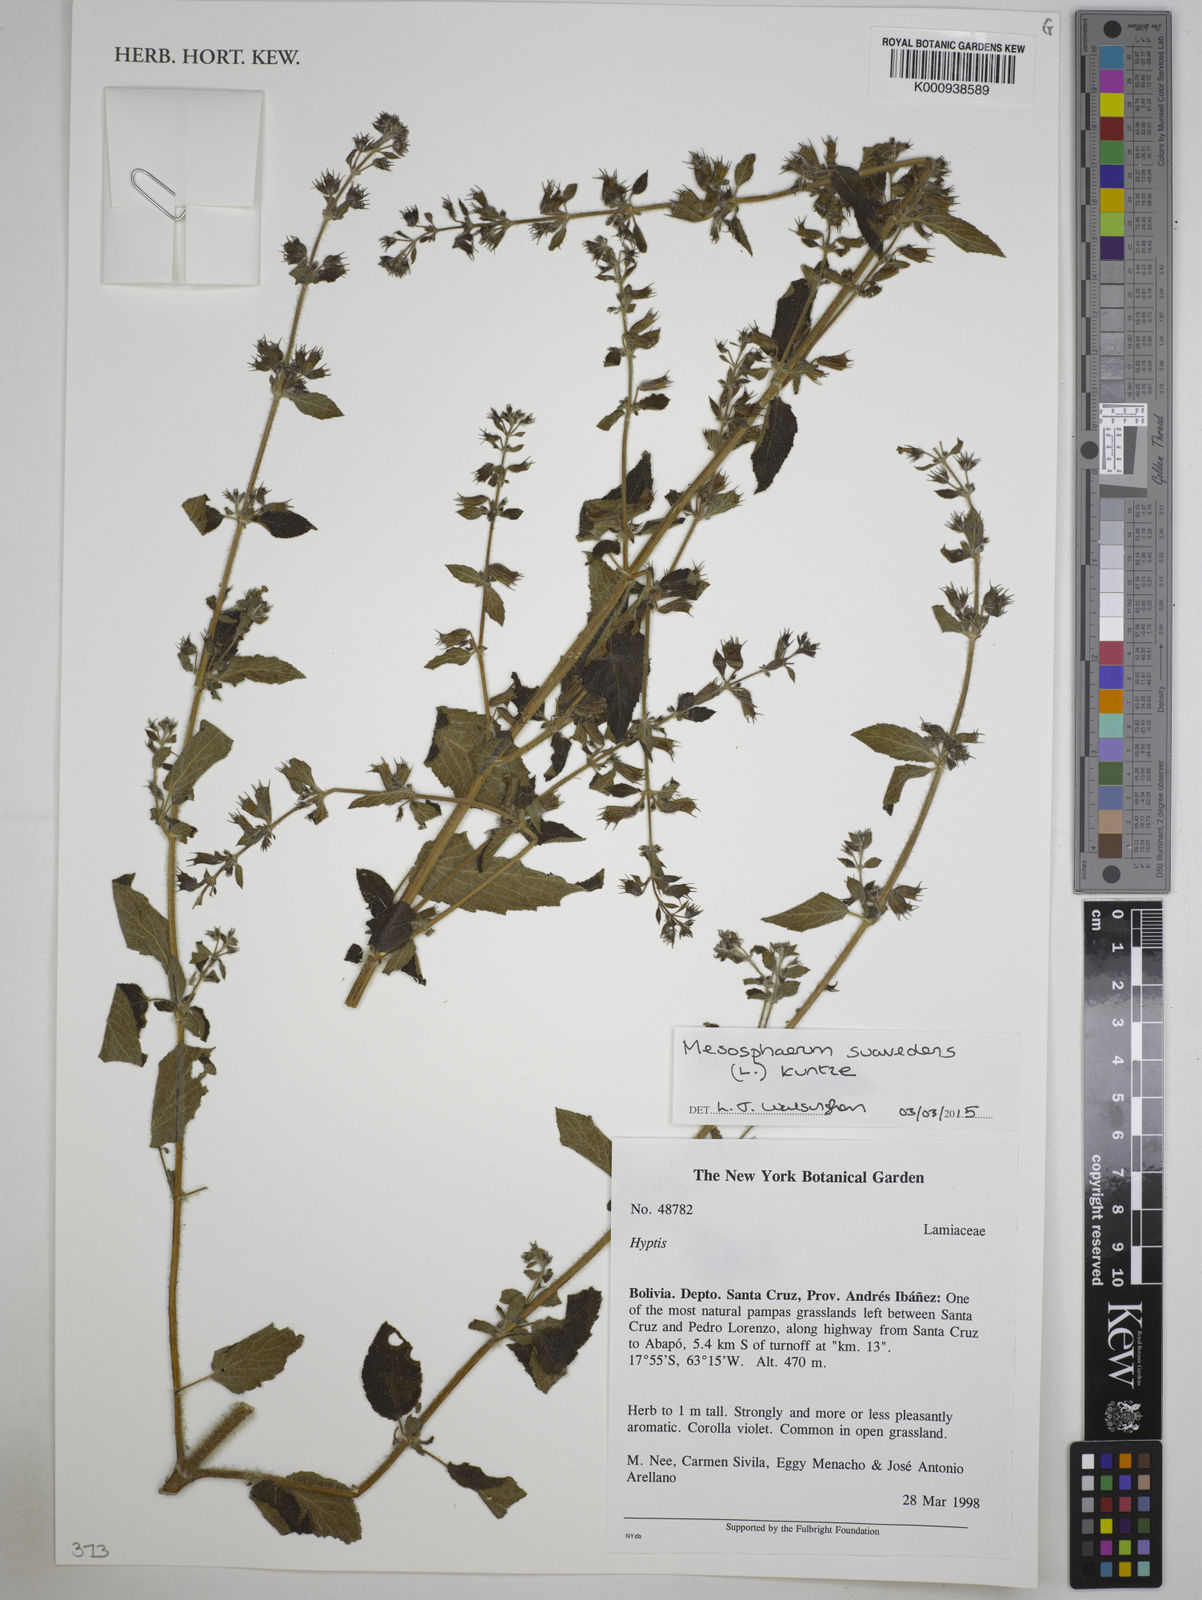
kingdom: Plantae
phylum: Tracheophyta
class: Magnoliopsida
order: Lamiales
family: Lamiaceae
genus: Mesosphaerum
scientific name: Mesosphaerum suaveolens
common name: Pignut
